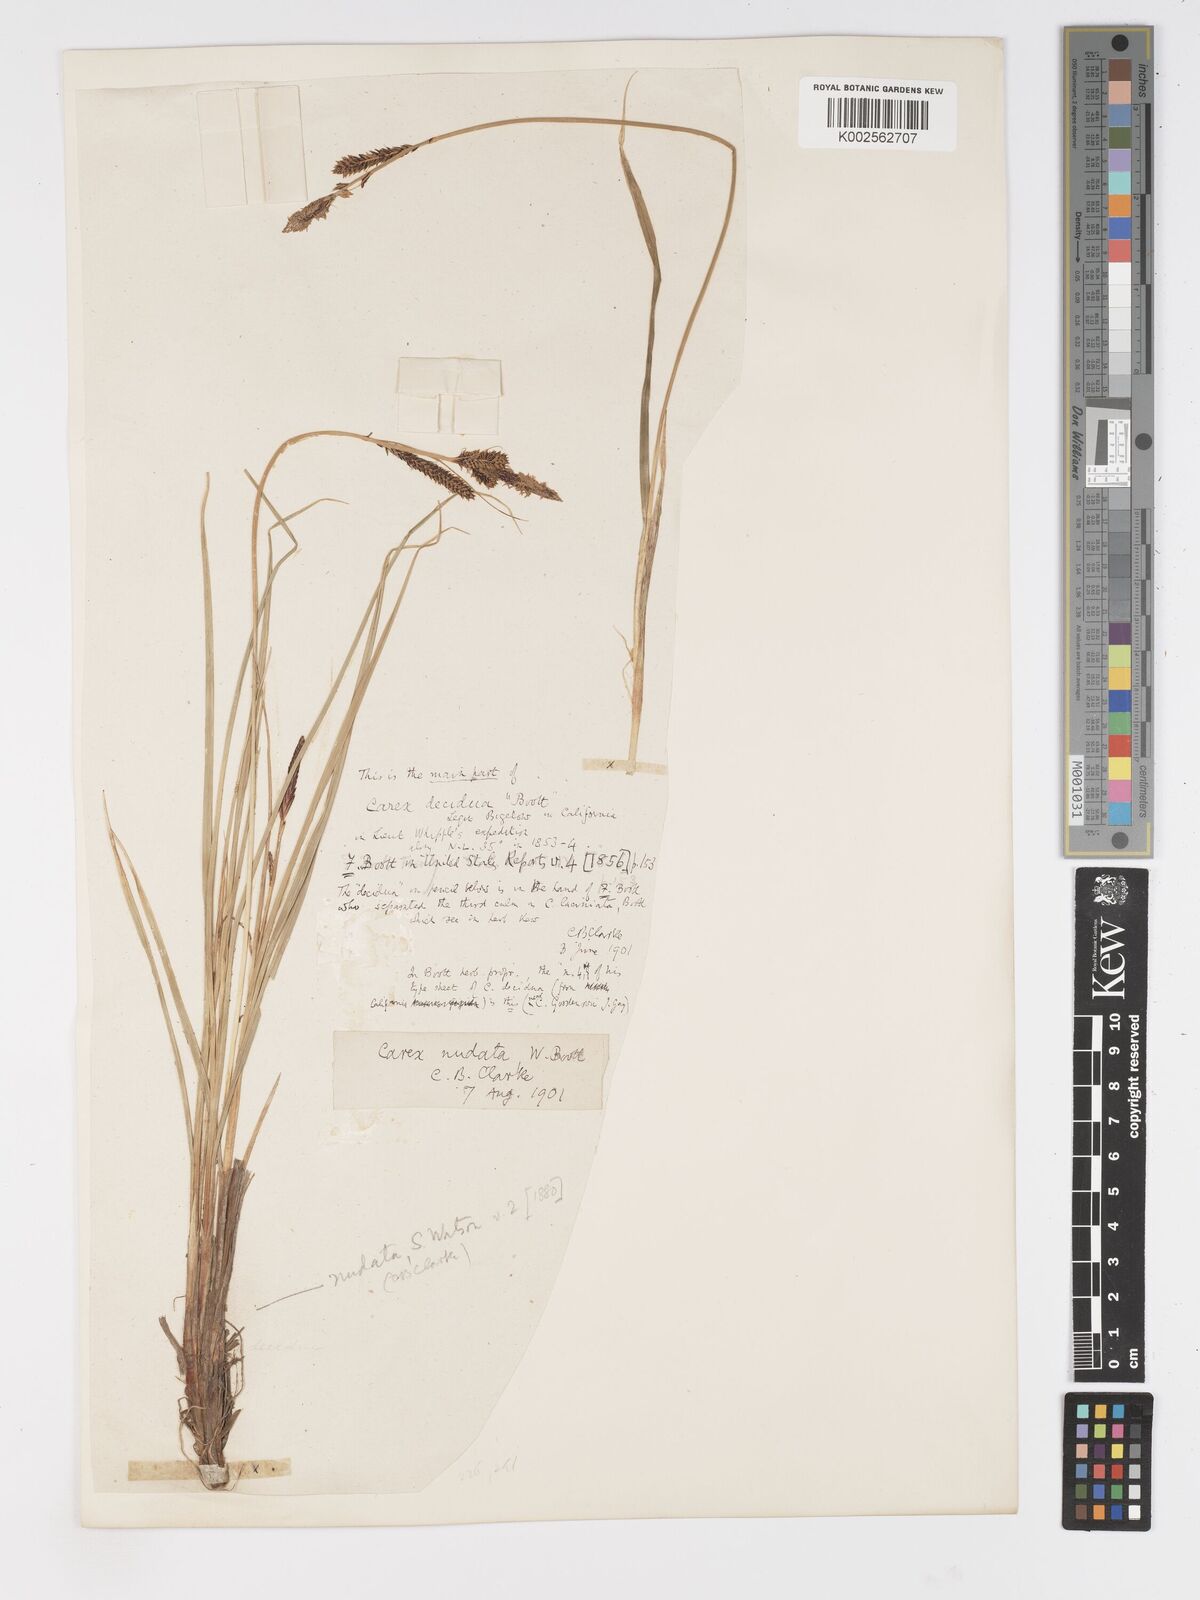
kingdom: Plantae
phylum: Tracheophyta
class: Liliopsida
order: Poales
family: Cyperaceae
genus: Carex
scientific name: Carex nudata
